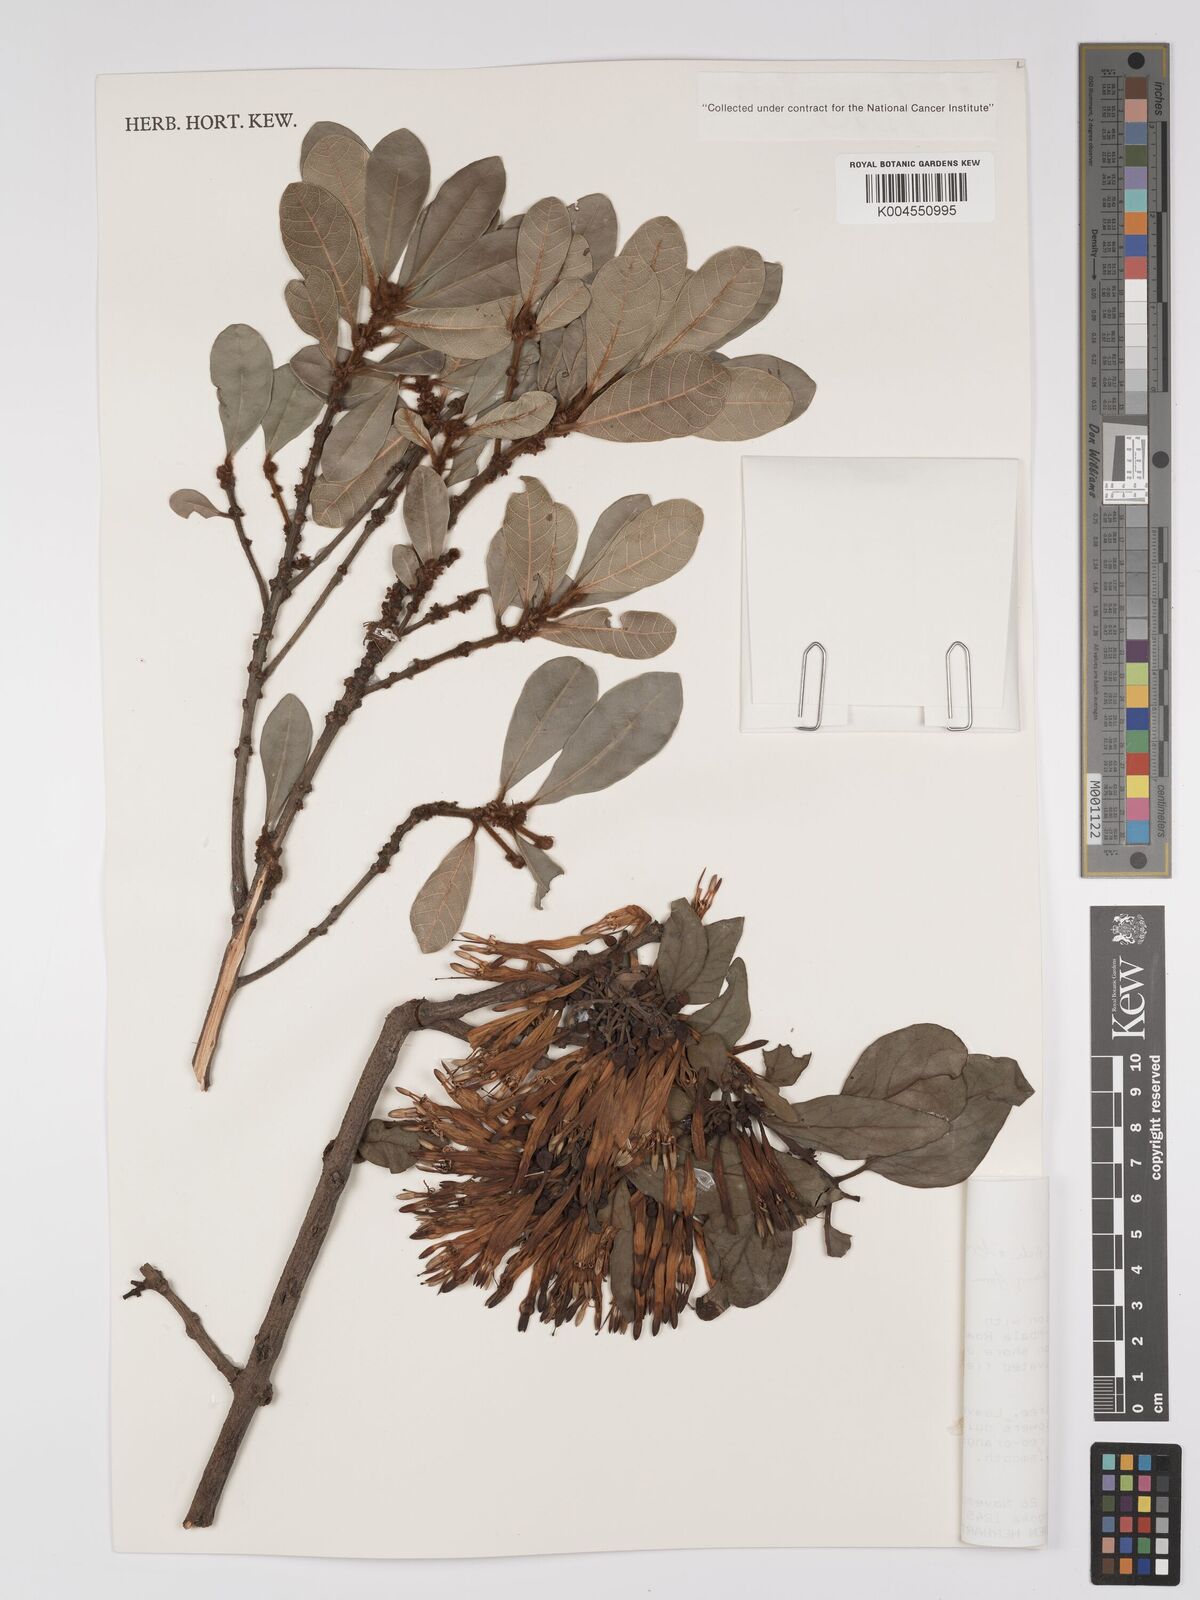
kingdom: Plantae
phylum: Tracheophyta
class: Magnoliopsida
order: Santalales
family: Loranthaceae
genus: Agelanthus
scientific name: Agelanthus nyasicus
